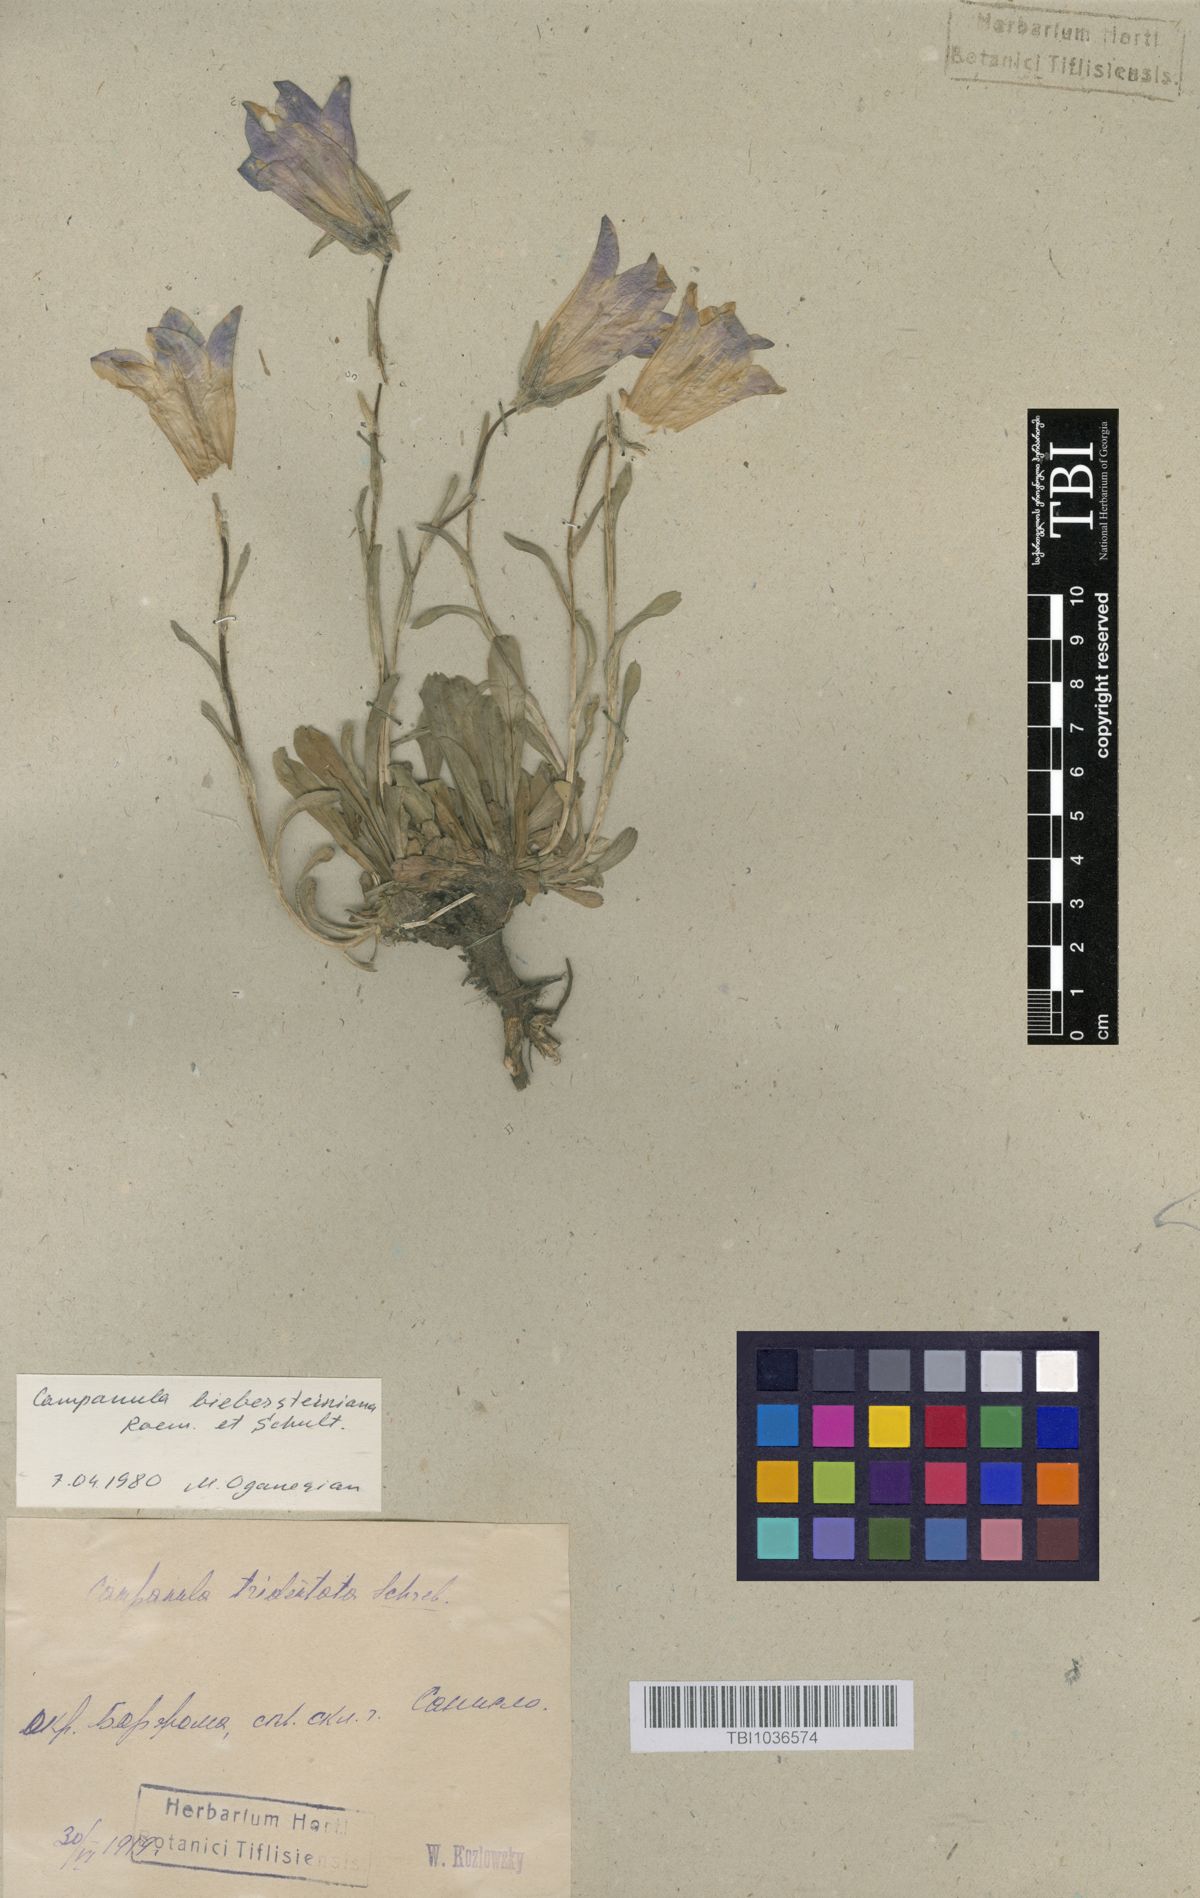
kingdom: Plantae
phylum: Tracheophyta
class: Magnoliopsida
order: Asterales
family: Campanulaceae
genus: Campanula
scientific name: Campanula tridentata
